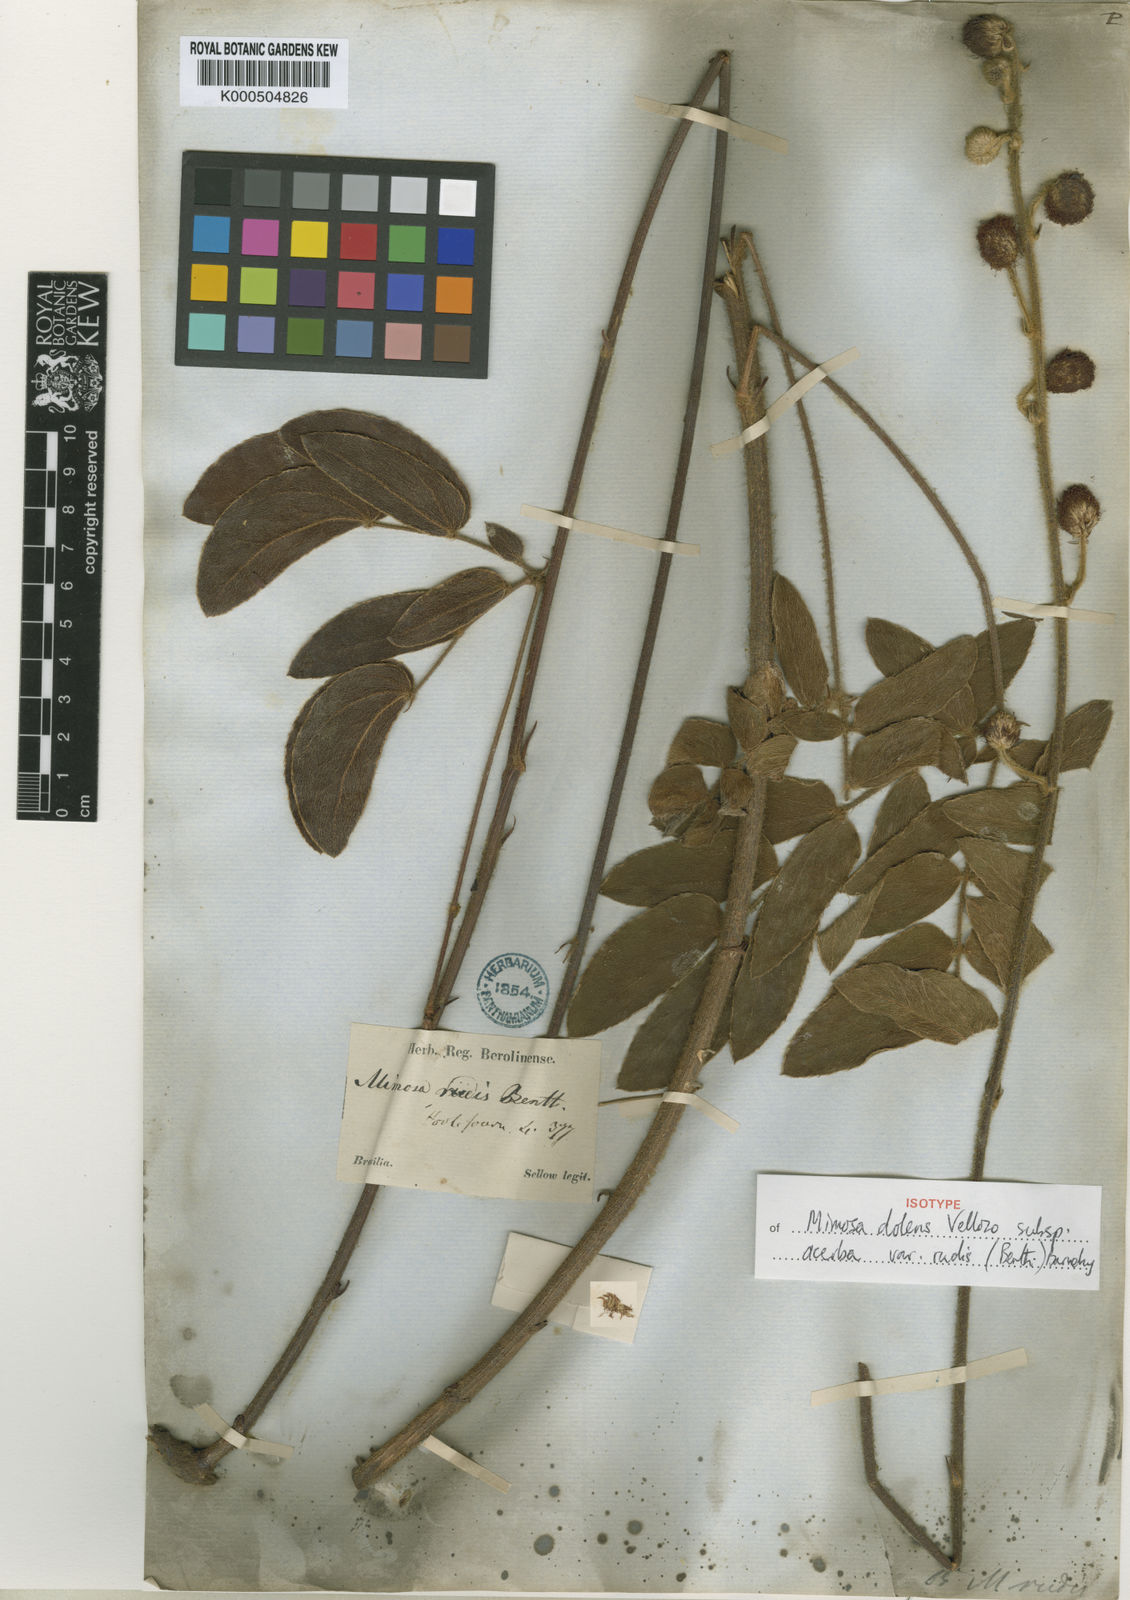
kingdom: Plantae
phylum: Tracheophyta
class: Magnoliopsida
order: Fabales
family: Fabaceae
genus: Mimosa
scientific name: Mimosa dolens
